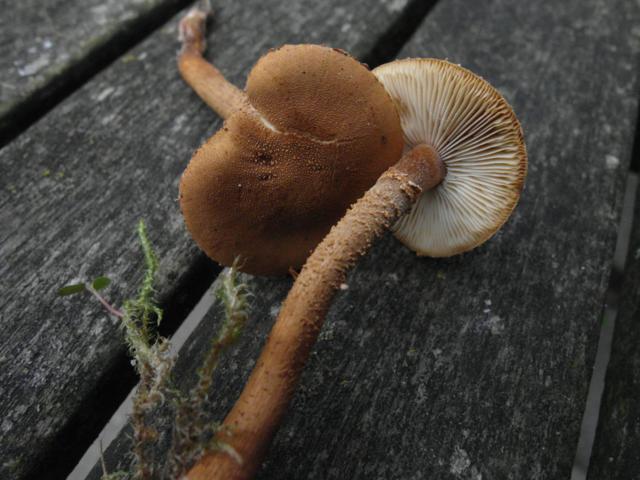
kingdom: Fungi
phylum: Basidiomycota
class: Agaricomycetes
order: Agaricales
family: Tricholomataceae
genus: Cystoderma
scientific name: Cystoderma amianthinum
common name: okkergul grynhat
